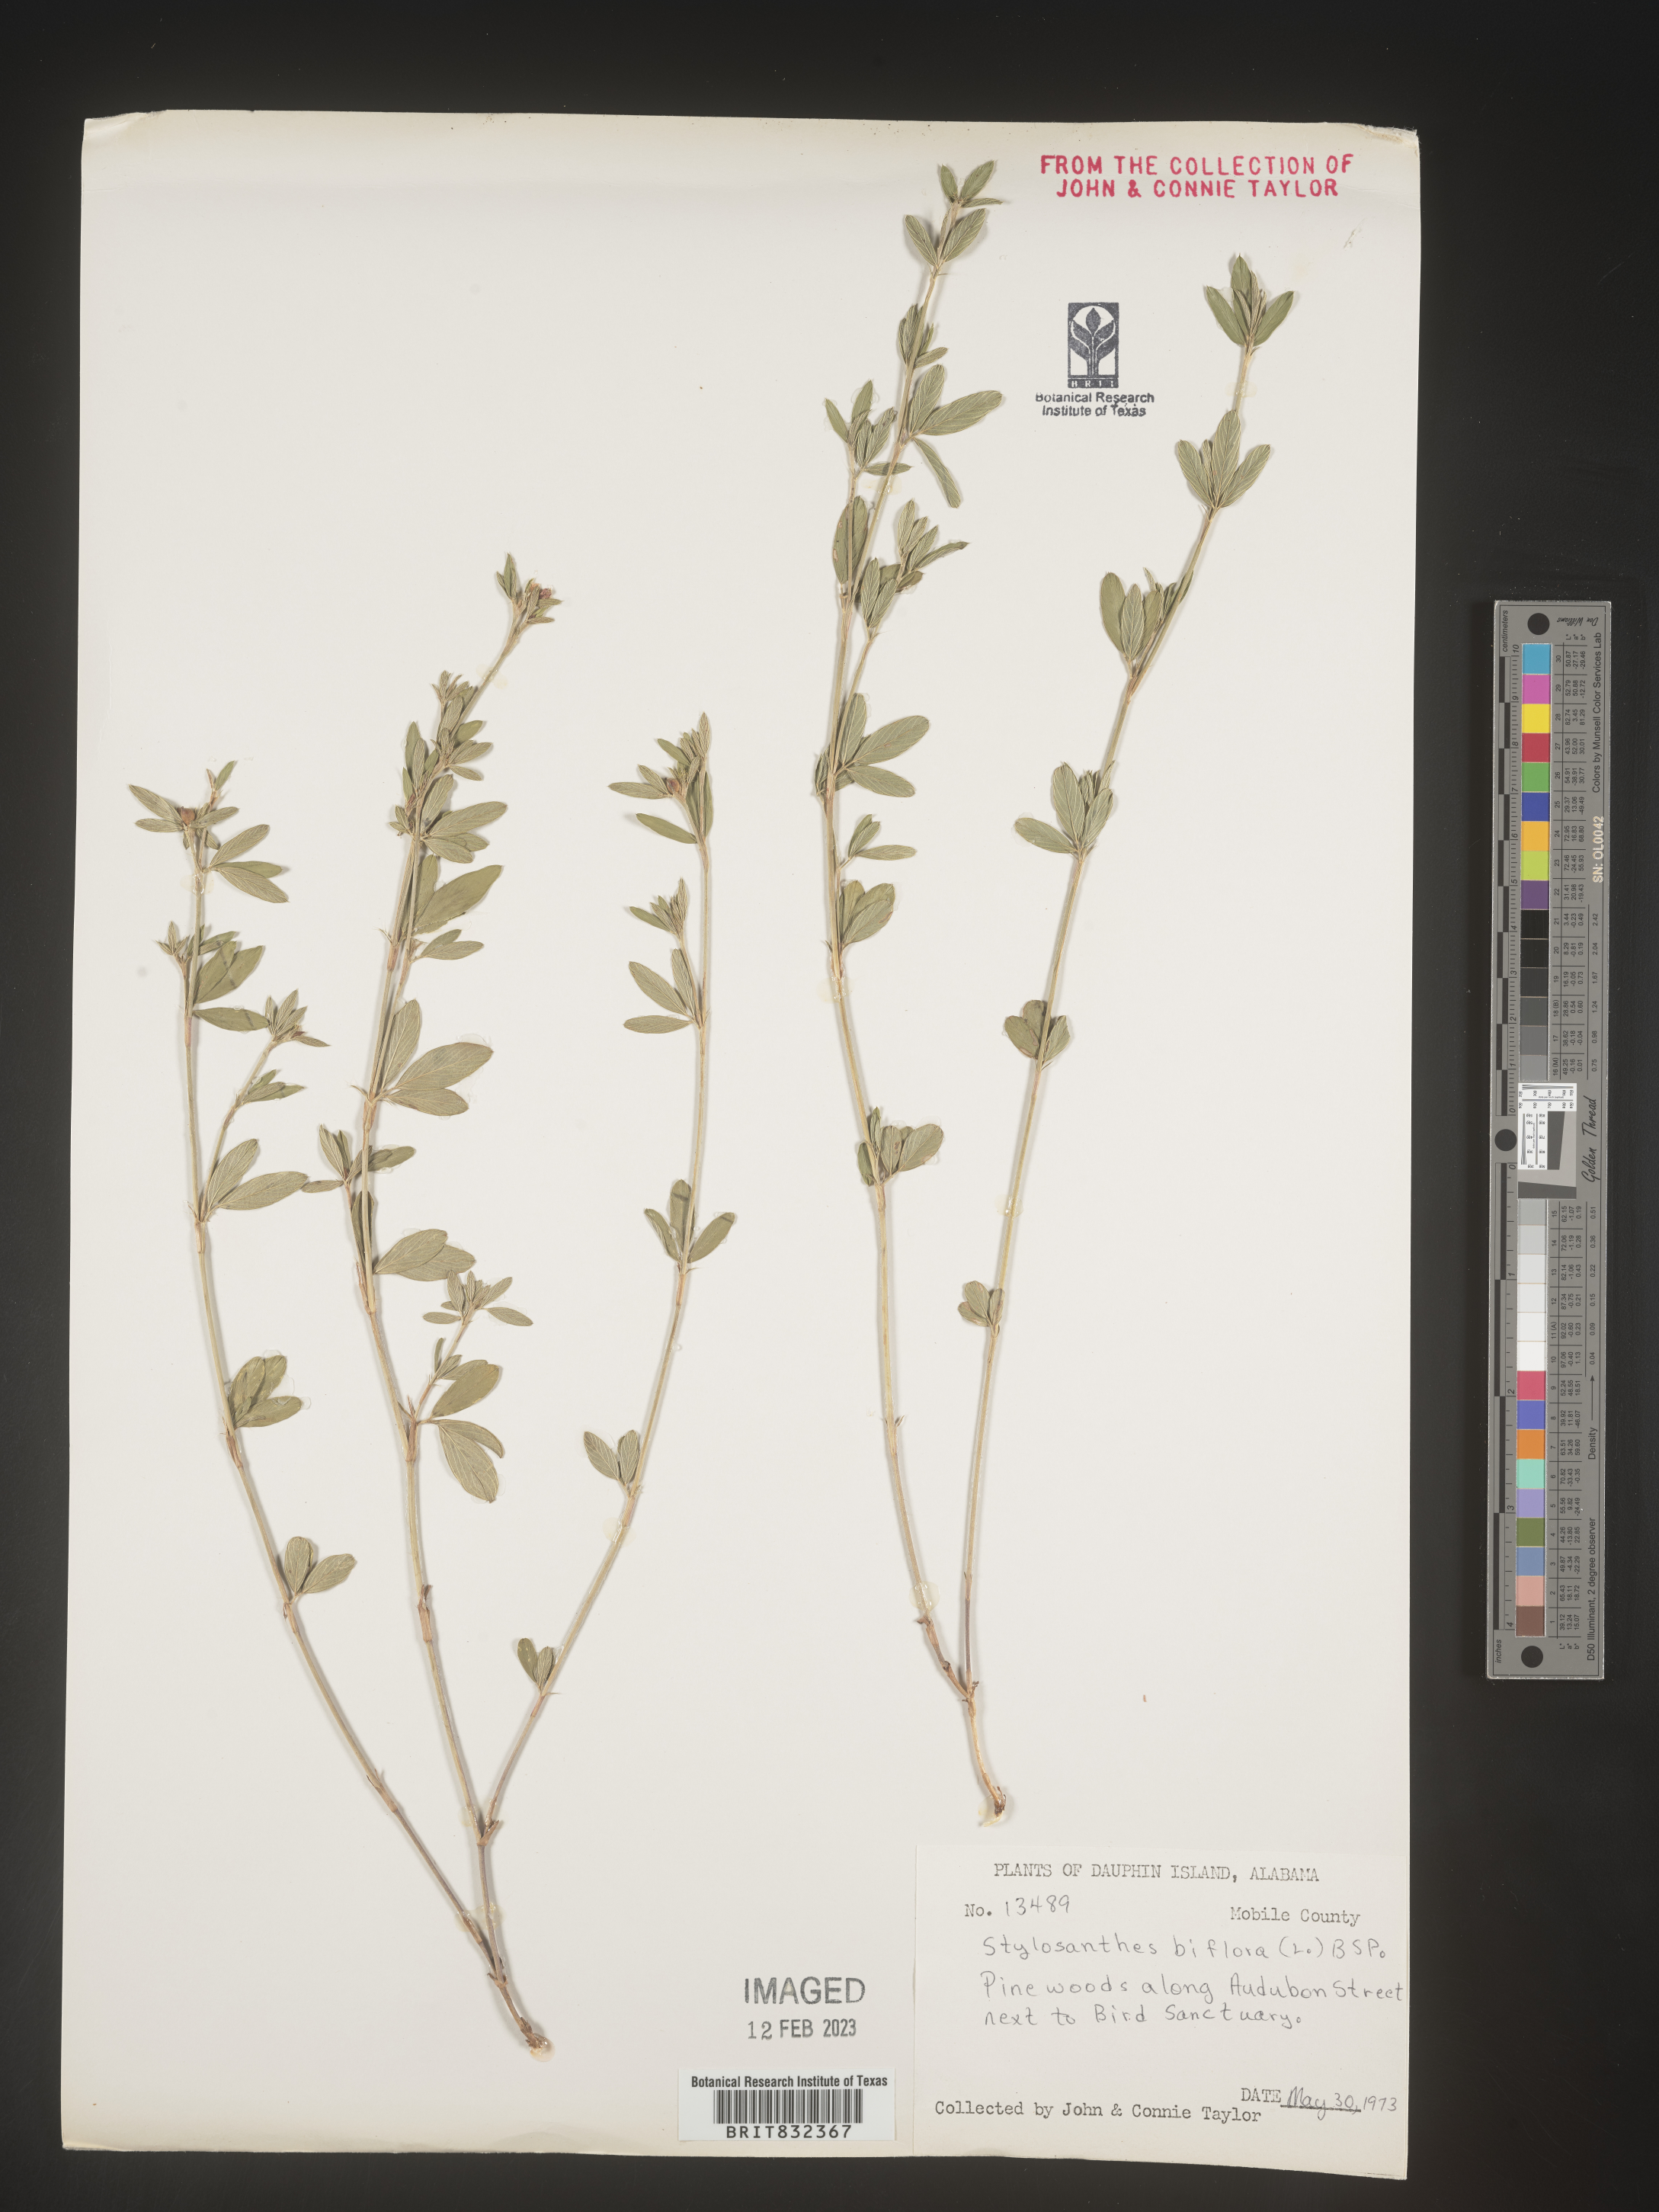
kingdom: Plantae
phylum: Tracheophyta
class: Magnoliopsida
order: Fabales
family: Fabaceae
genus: Stylosanthes
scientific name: Stylosanthes biflora
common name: Two-flower pencil-flower
